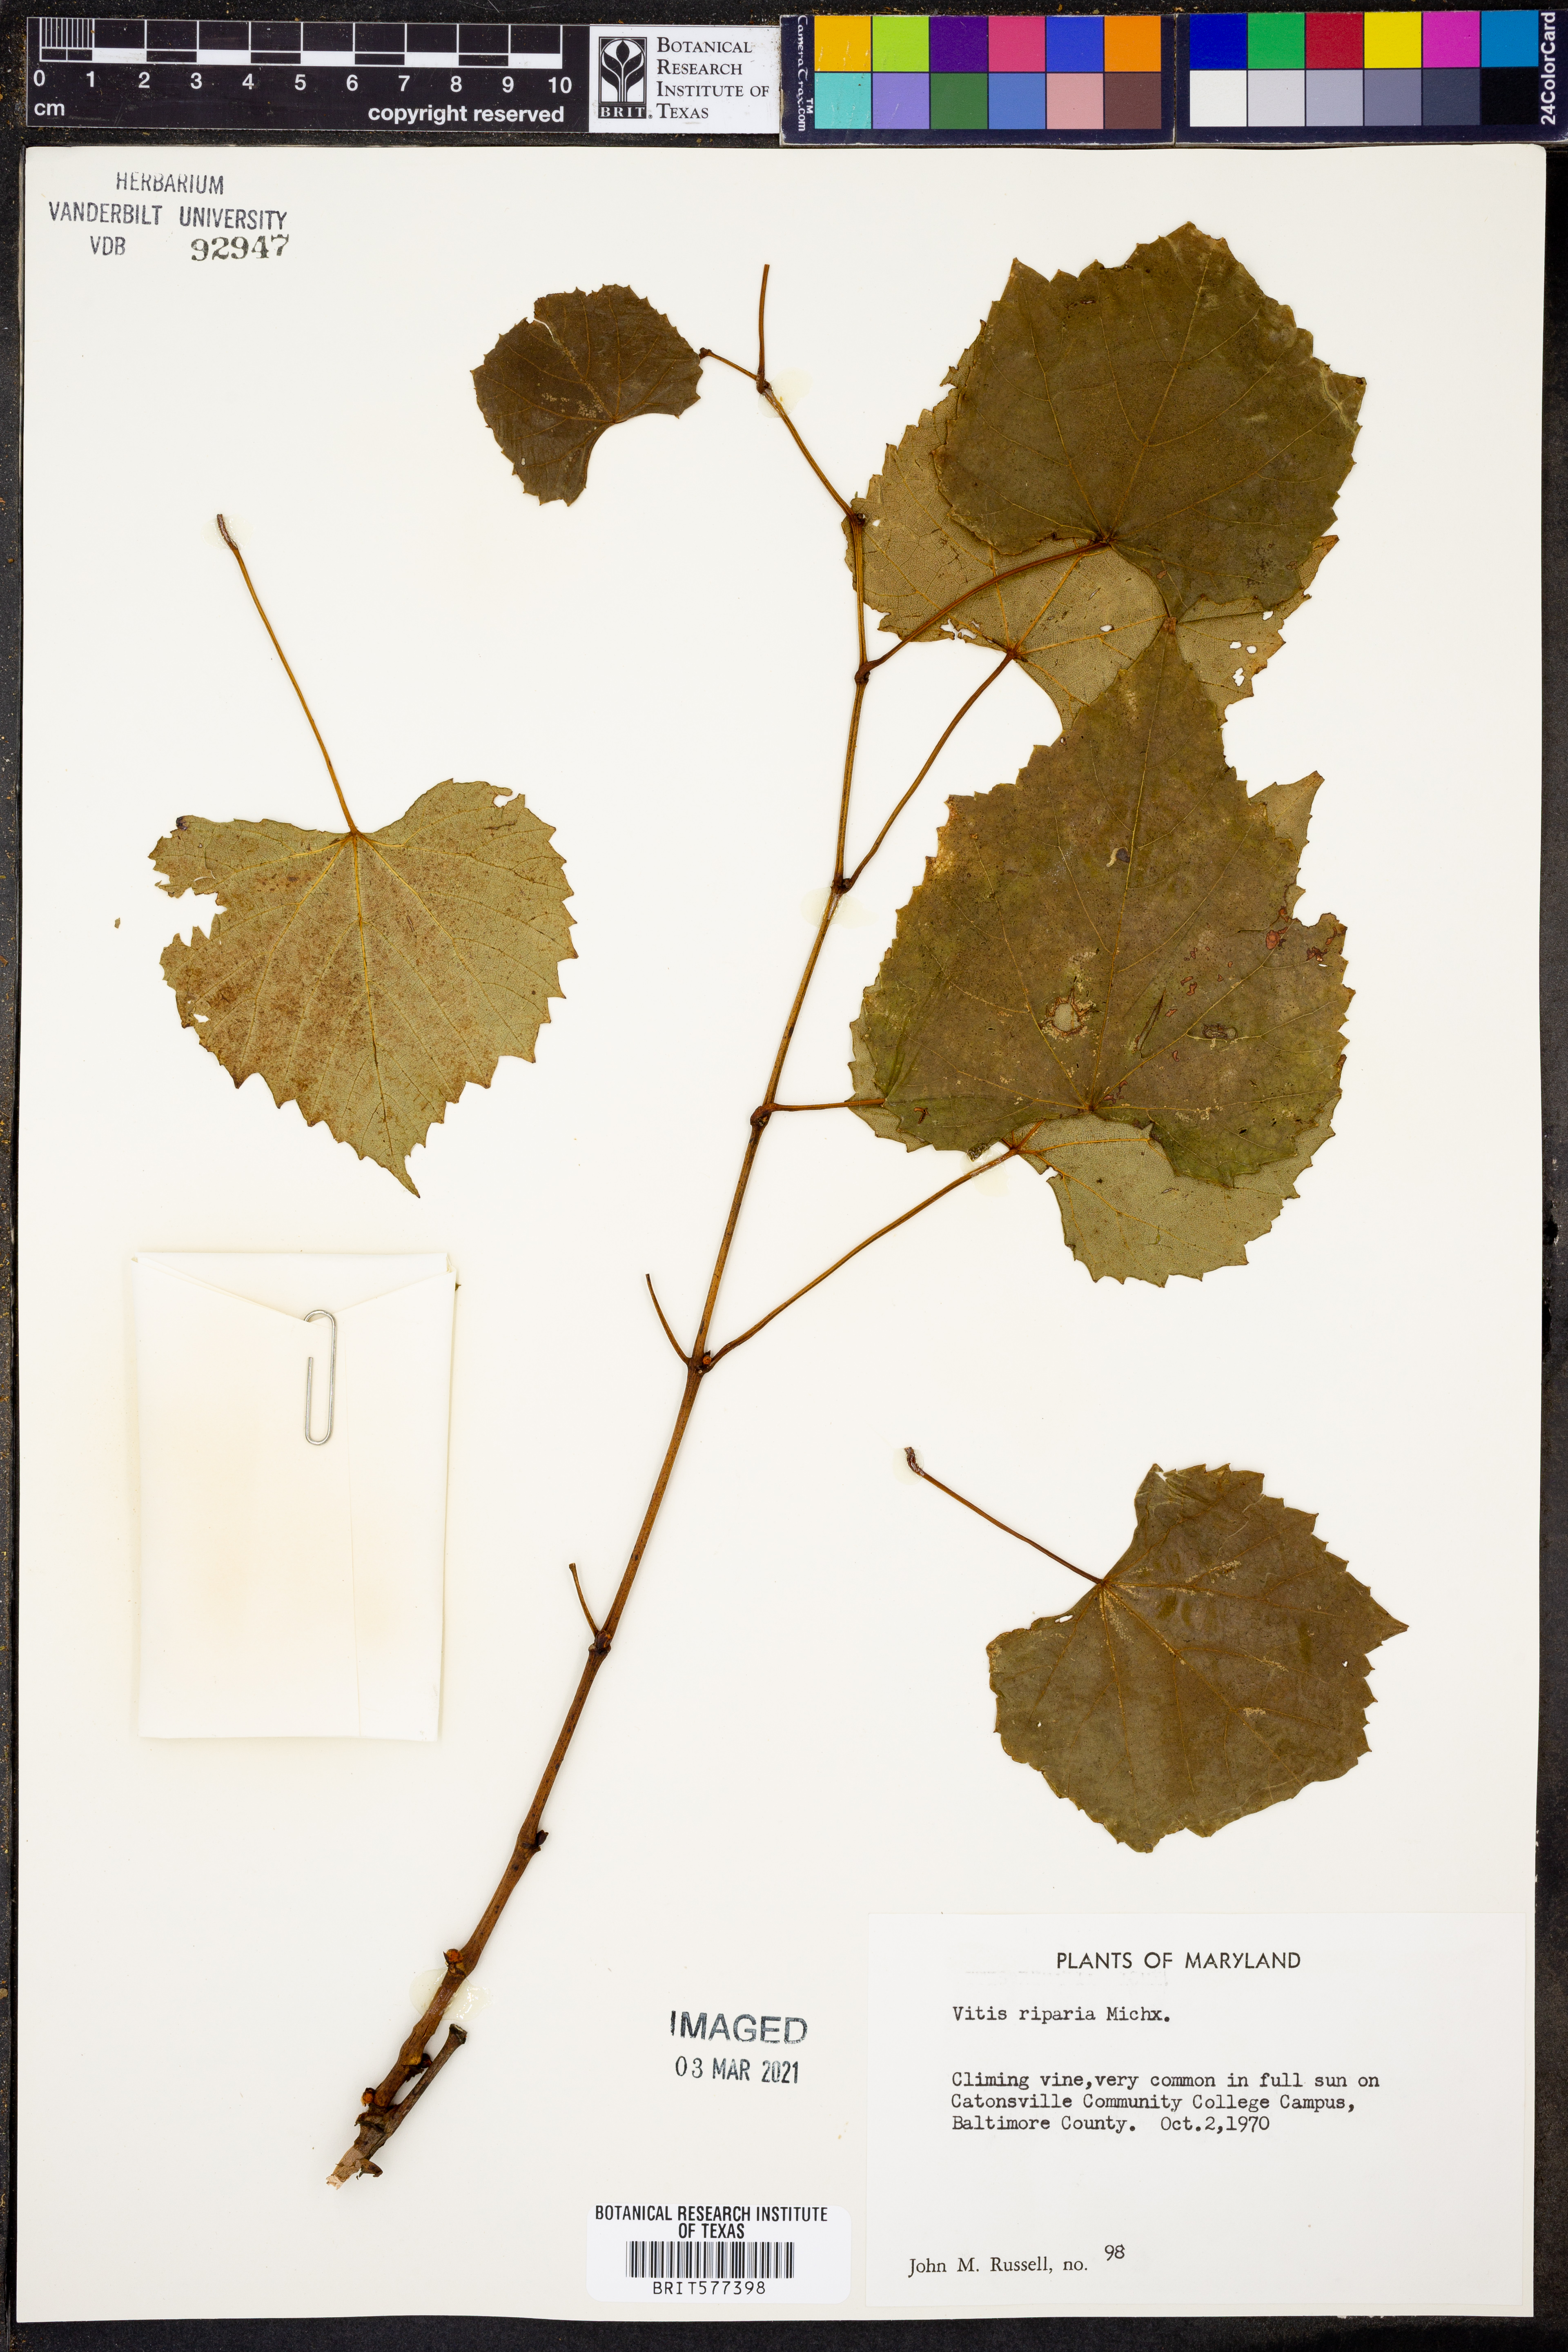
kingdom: Plantae
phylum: Tracheophyta
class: Magnoliopsida
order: Vitales
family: Vitaceae
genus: Vitis
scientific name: Vitis riparia
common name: Frost grape
